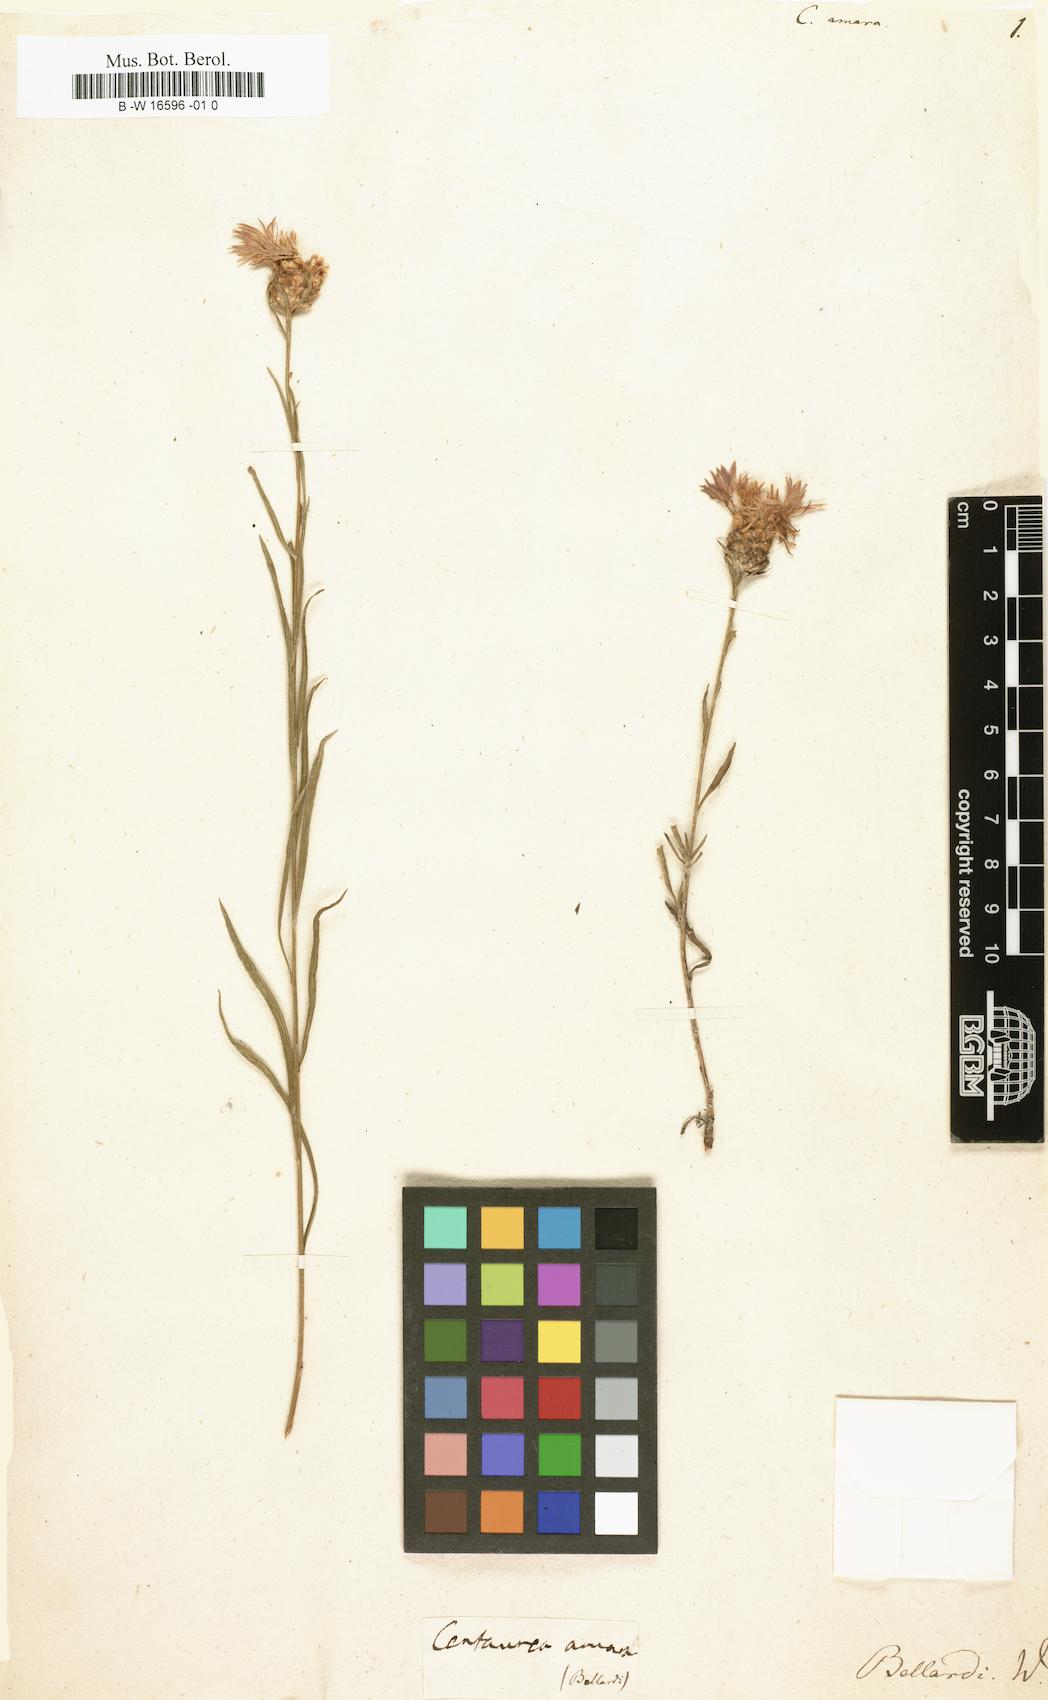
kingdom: Plantae
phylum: Tracheophyta
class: Magnoliopsida
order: Asterales
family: Asteraceae
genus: Centaurea
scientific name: Centaurea jacea
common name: Brown knapweed
